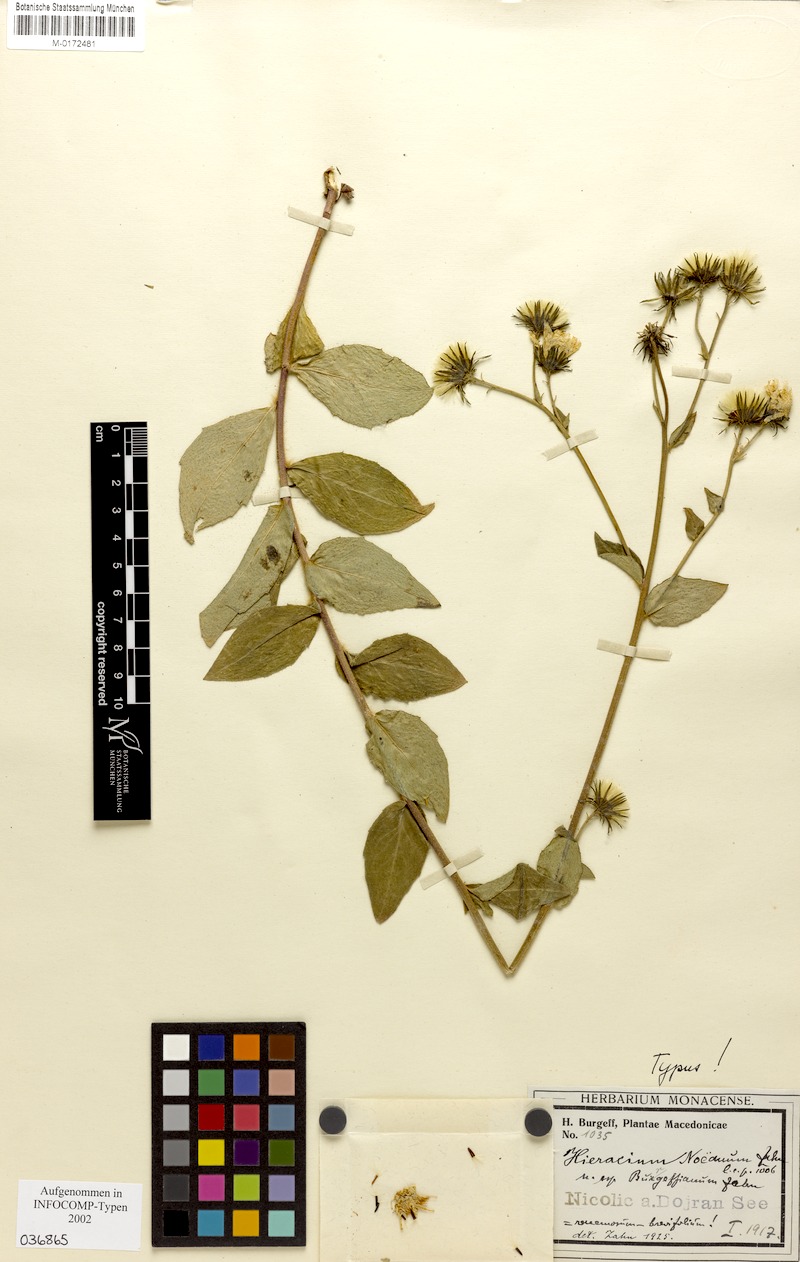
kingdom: Plantae
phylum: Tracheophyta
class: Magnoliopsida
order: Asterales
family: Asteraceae
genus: Hieracium
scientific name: Hieracium brevifolium
